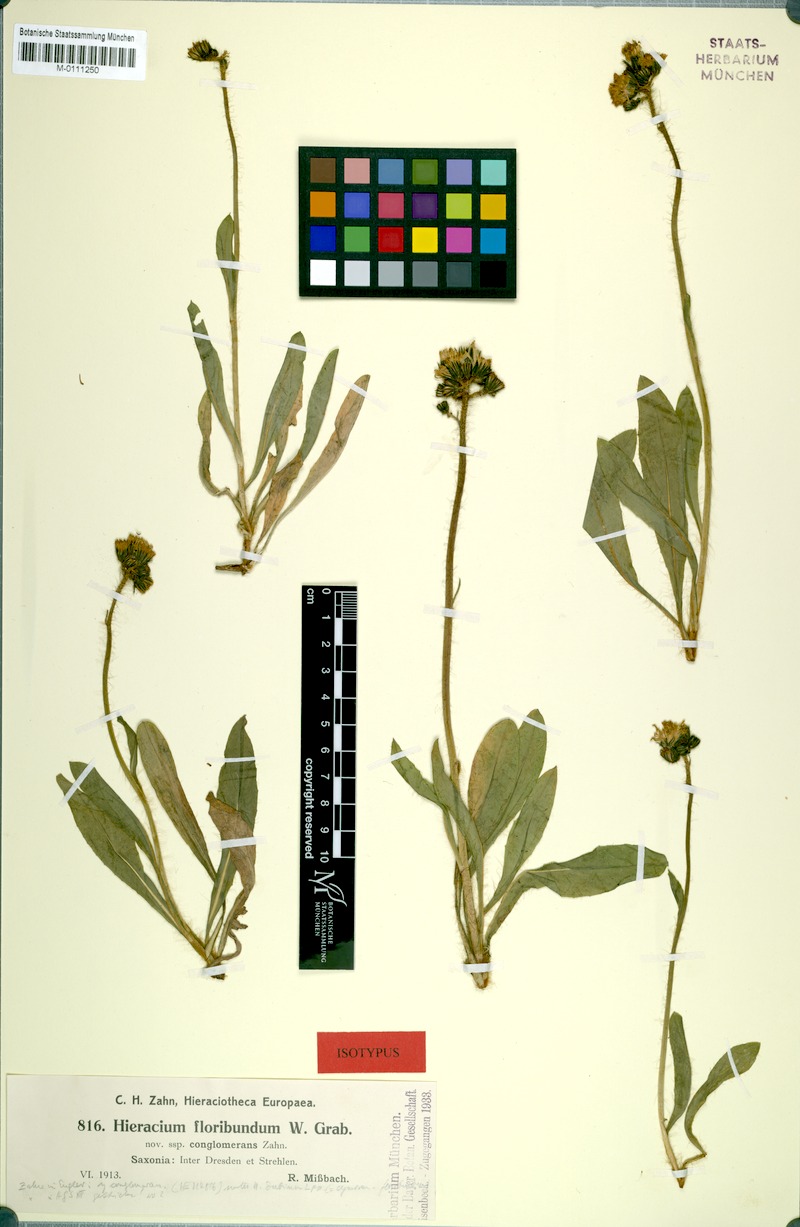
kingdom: Plantae
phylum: Tracheophyta
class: Magnoliopsida
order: Asterales
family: Asteraceae
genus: Pilosella
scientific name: Pilosella dubia
